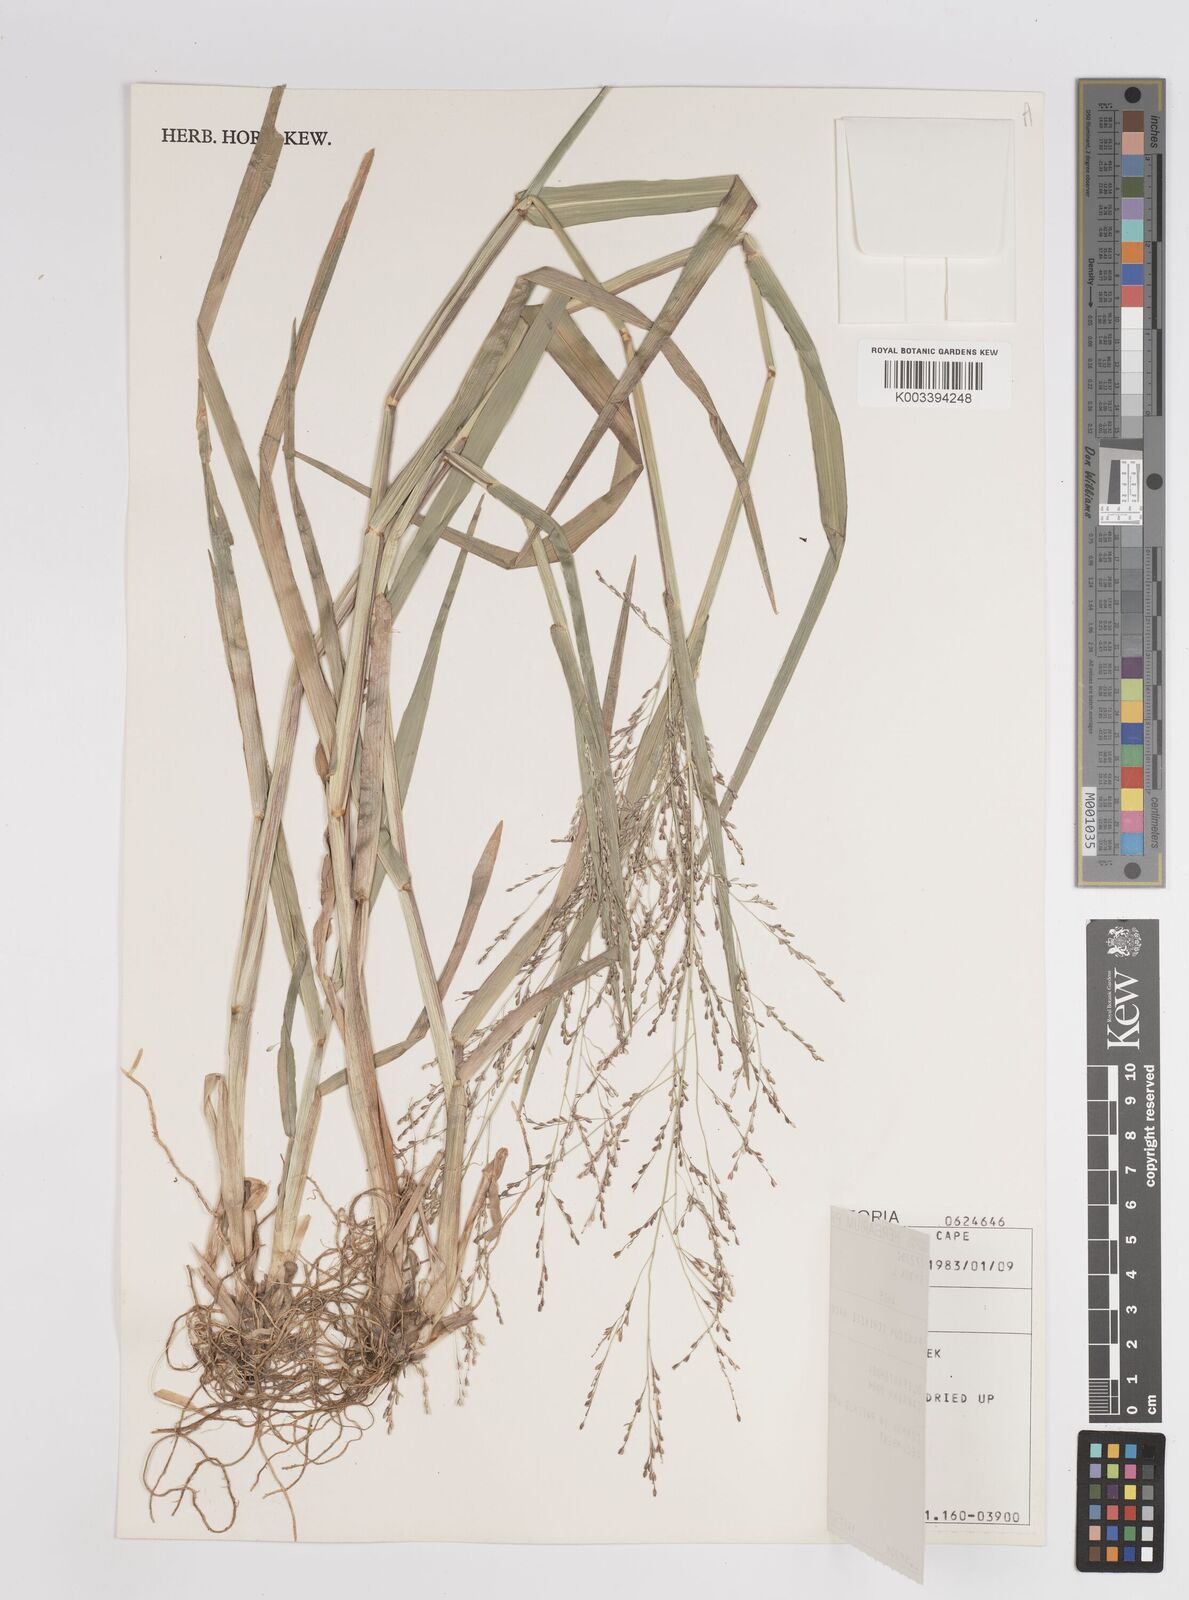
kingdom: Plantae
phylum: Tracheophyta
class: Liliopsida
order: Poales
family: Poaceae
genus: Panicum
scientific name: Panicum schinzii
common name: Sweet grass
